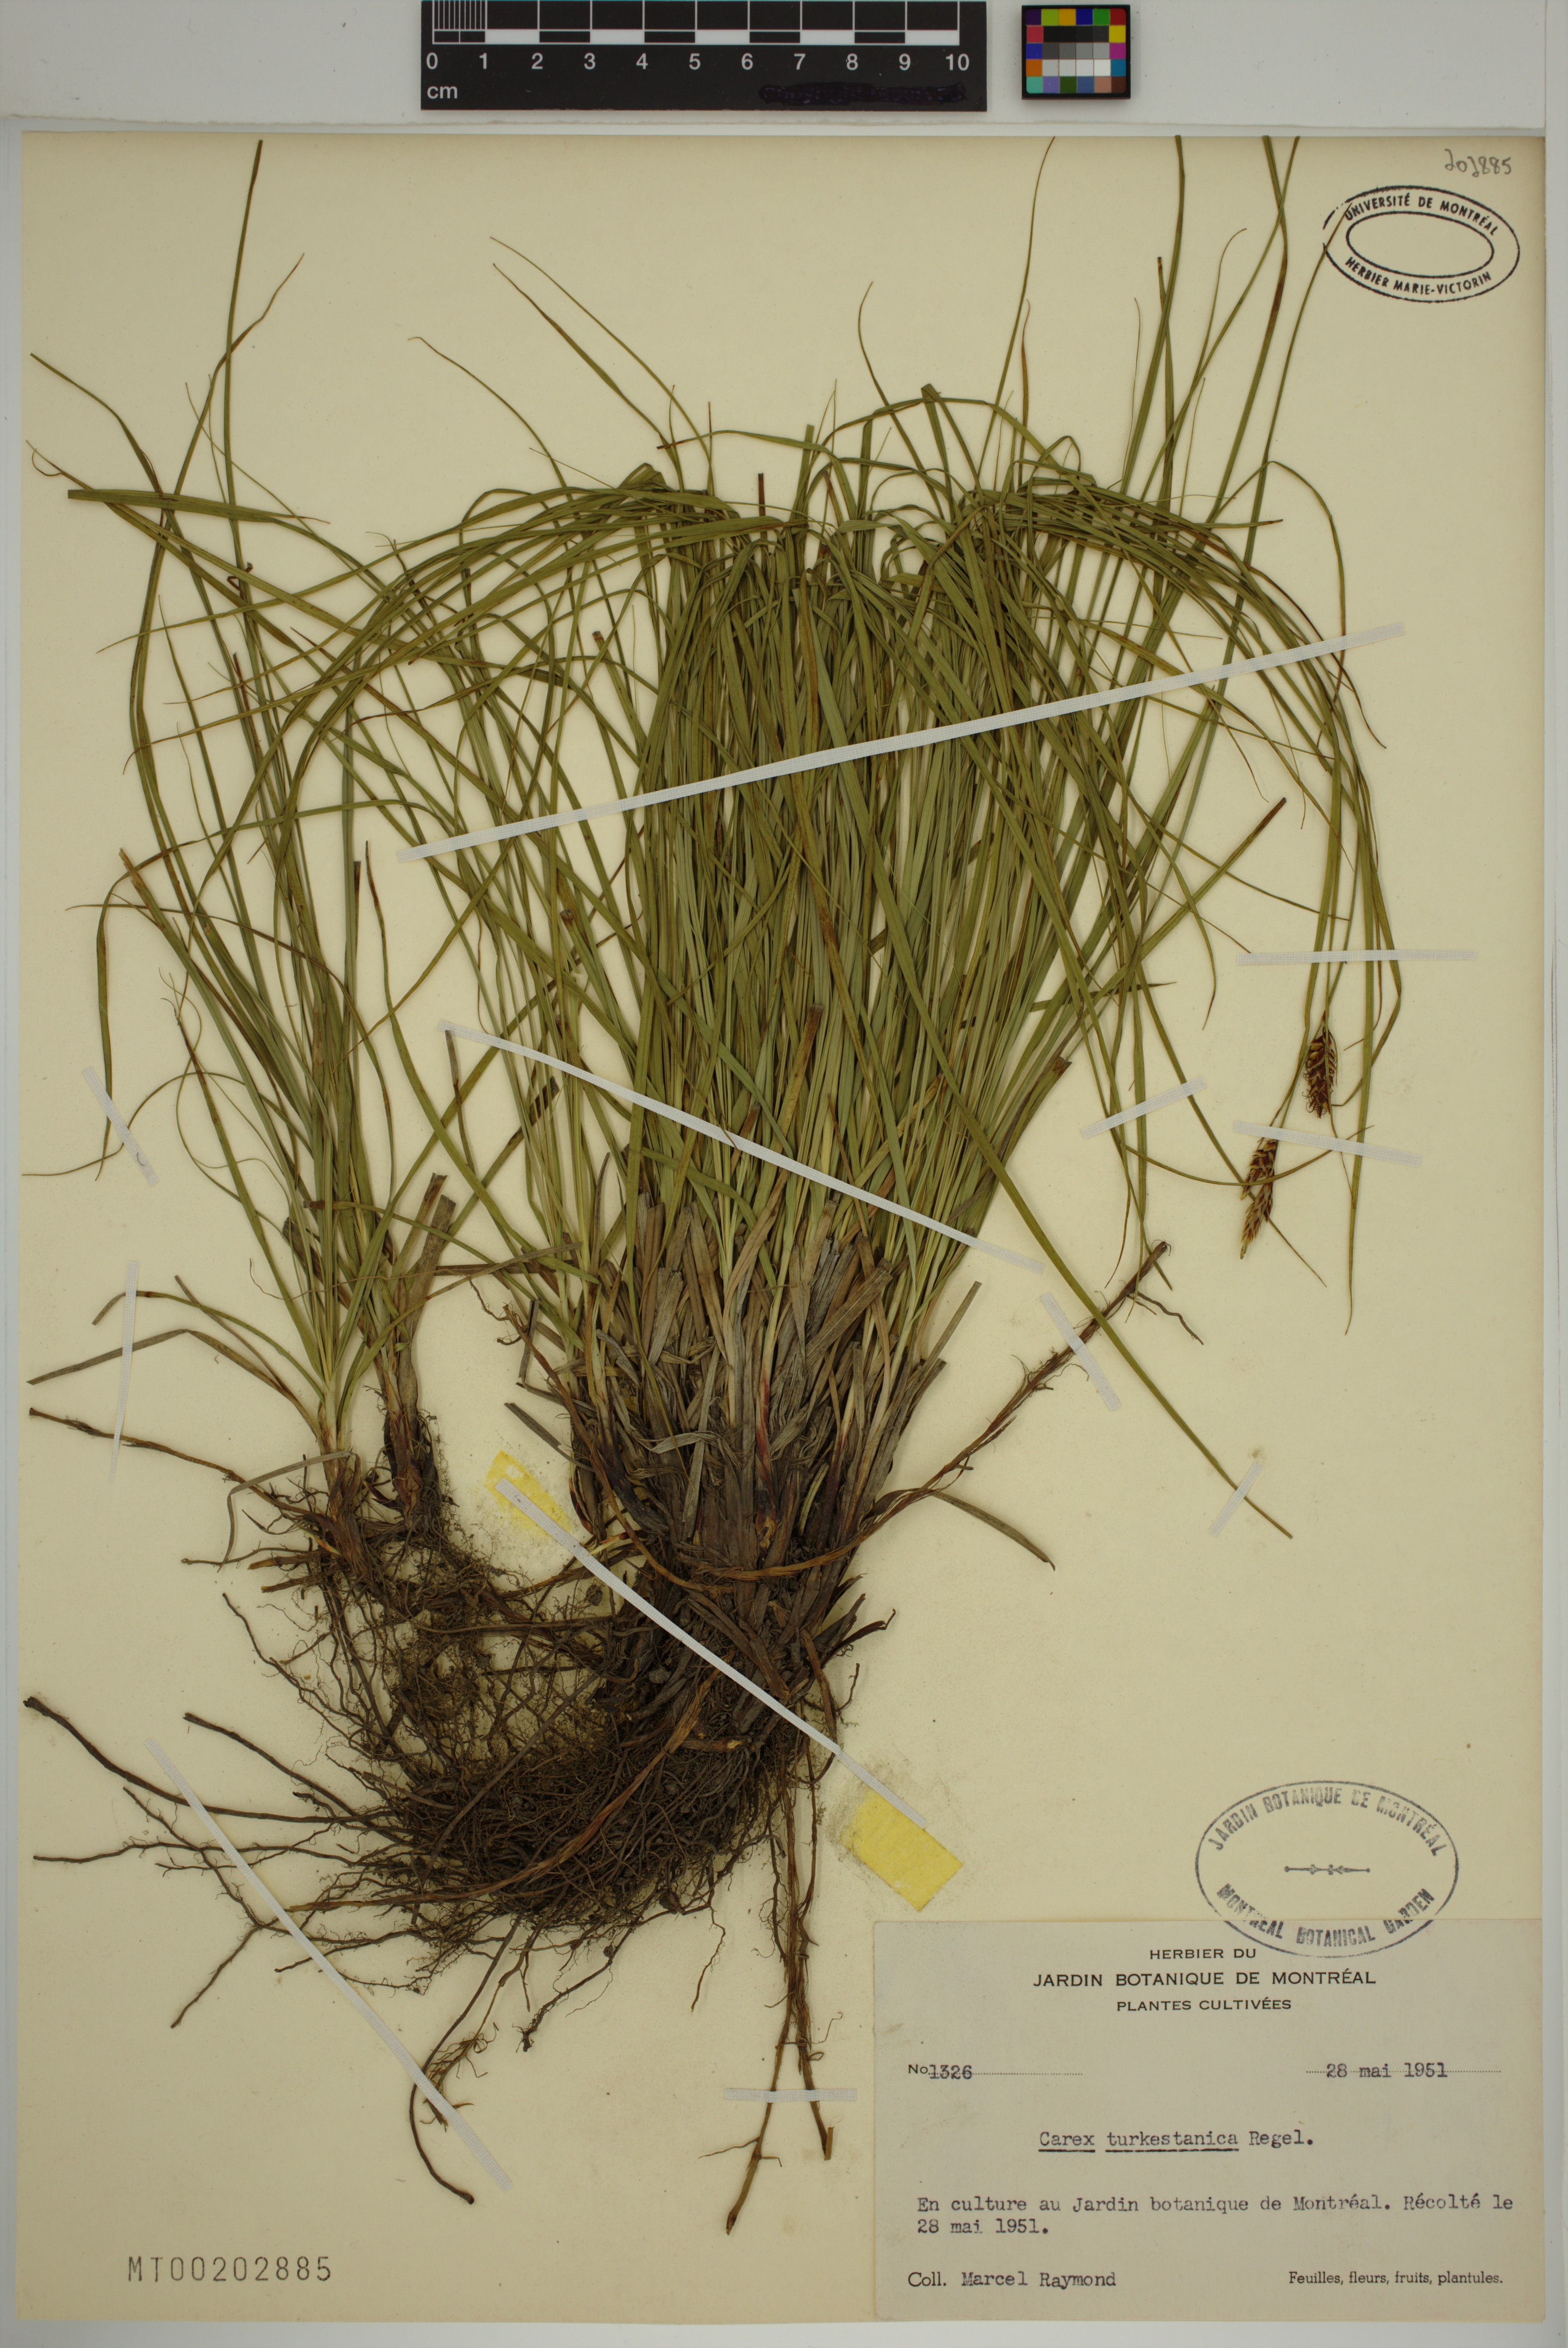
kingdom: Plantae
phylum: Tracheophyta
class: Liliopsida
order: Poales
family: Cyperaceae
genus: Carex
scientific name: Carex turkestanica
